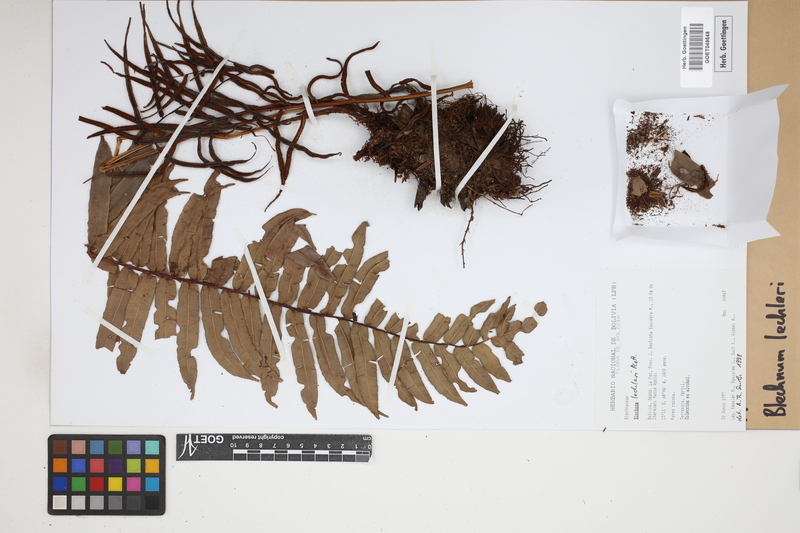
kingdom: Plantae
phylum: Tracheophyta
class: Polypodiopsida
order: Polypodiales
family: Blechnaceae
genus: Parablechnum
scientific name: Parablechnum lechleri
